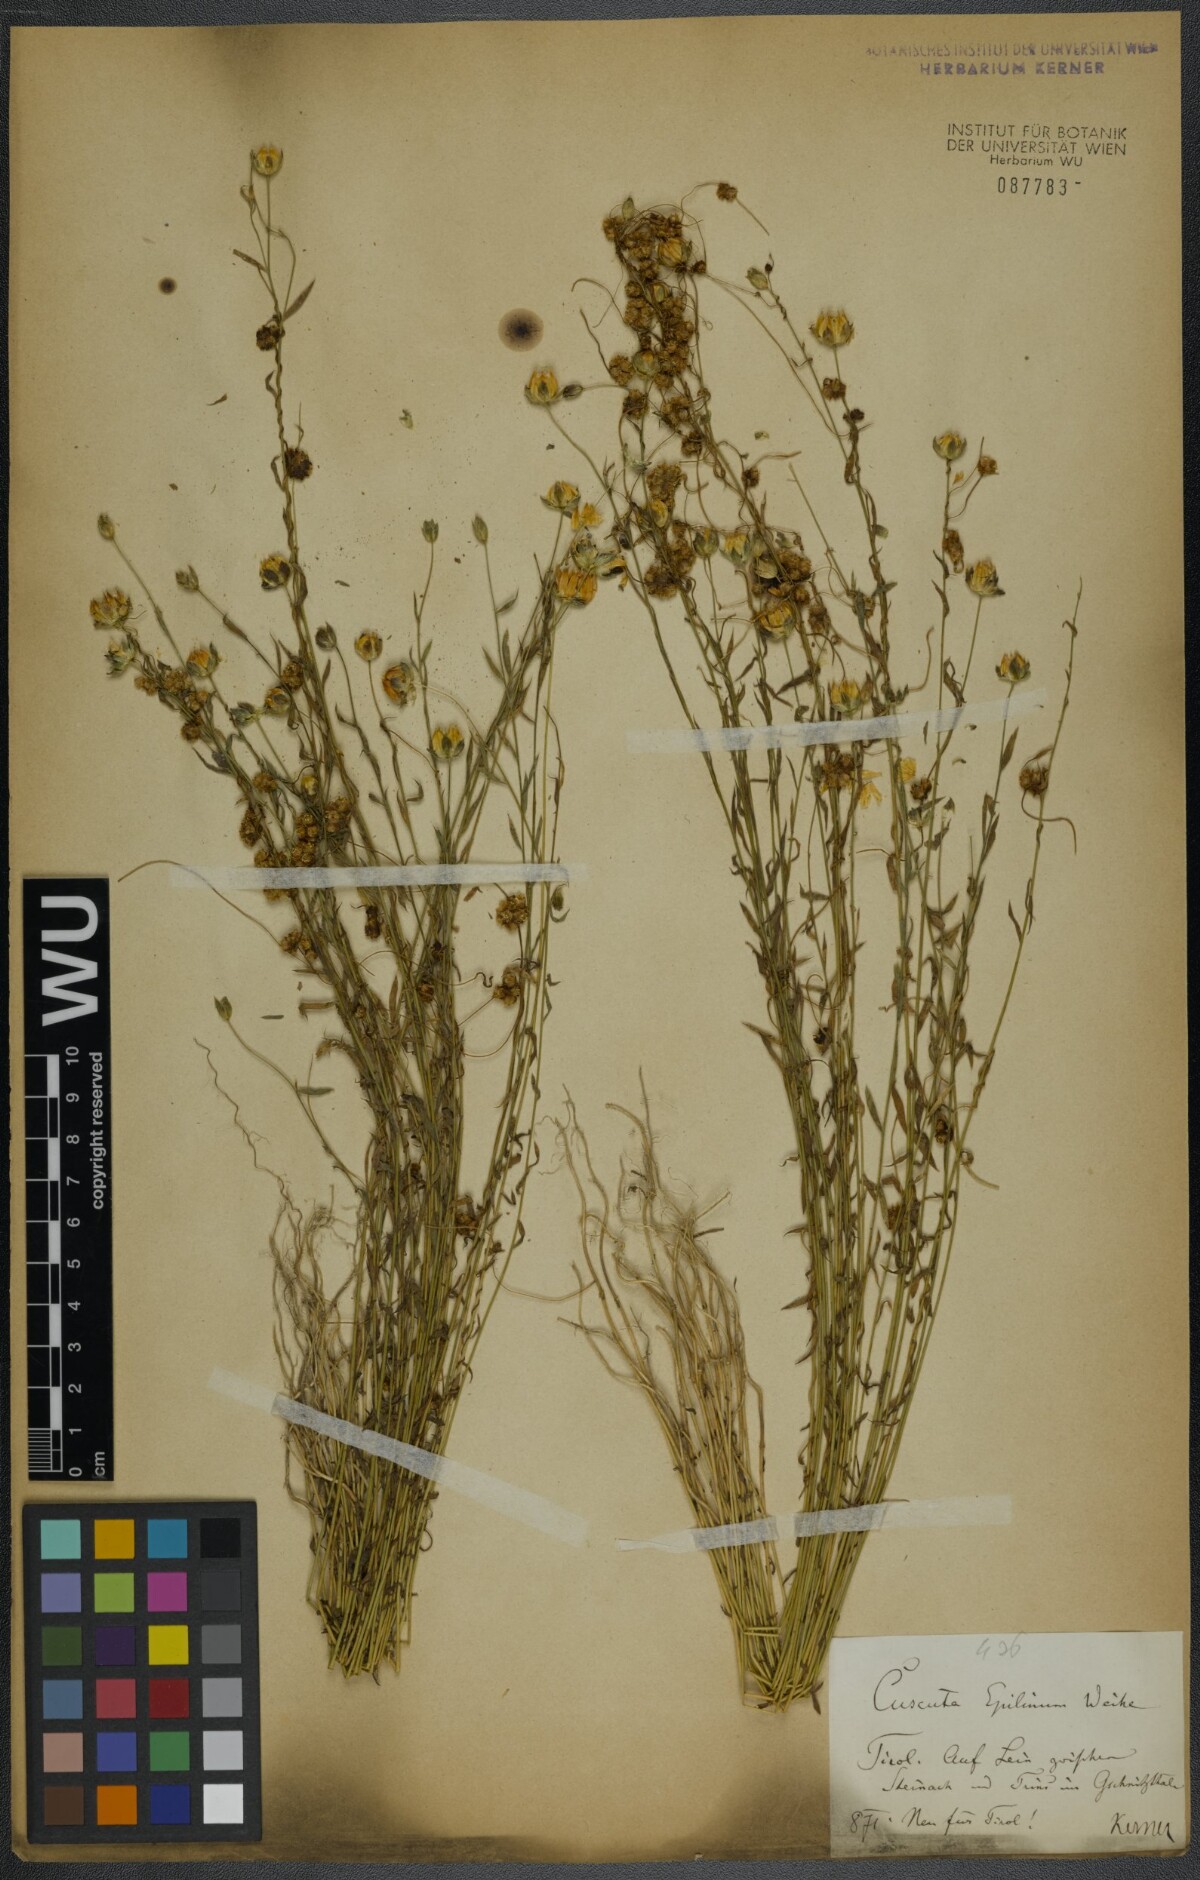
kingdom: Plantae
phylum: Tracheophyta
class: Magnoliopsida
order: Solanales
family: Convolvulaceae
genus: Cuscuta
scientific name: Cuscuta epilinum
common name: Flax dodder
